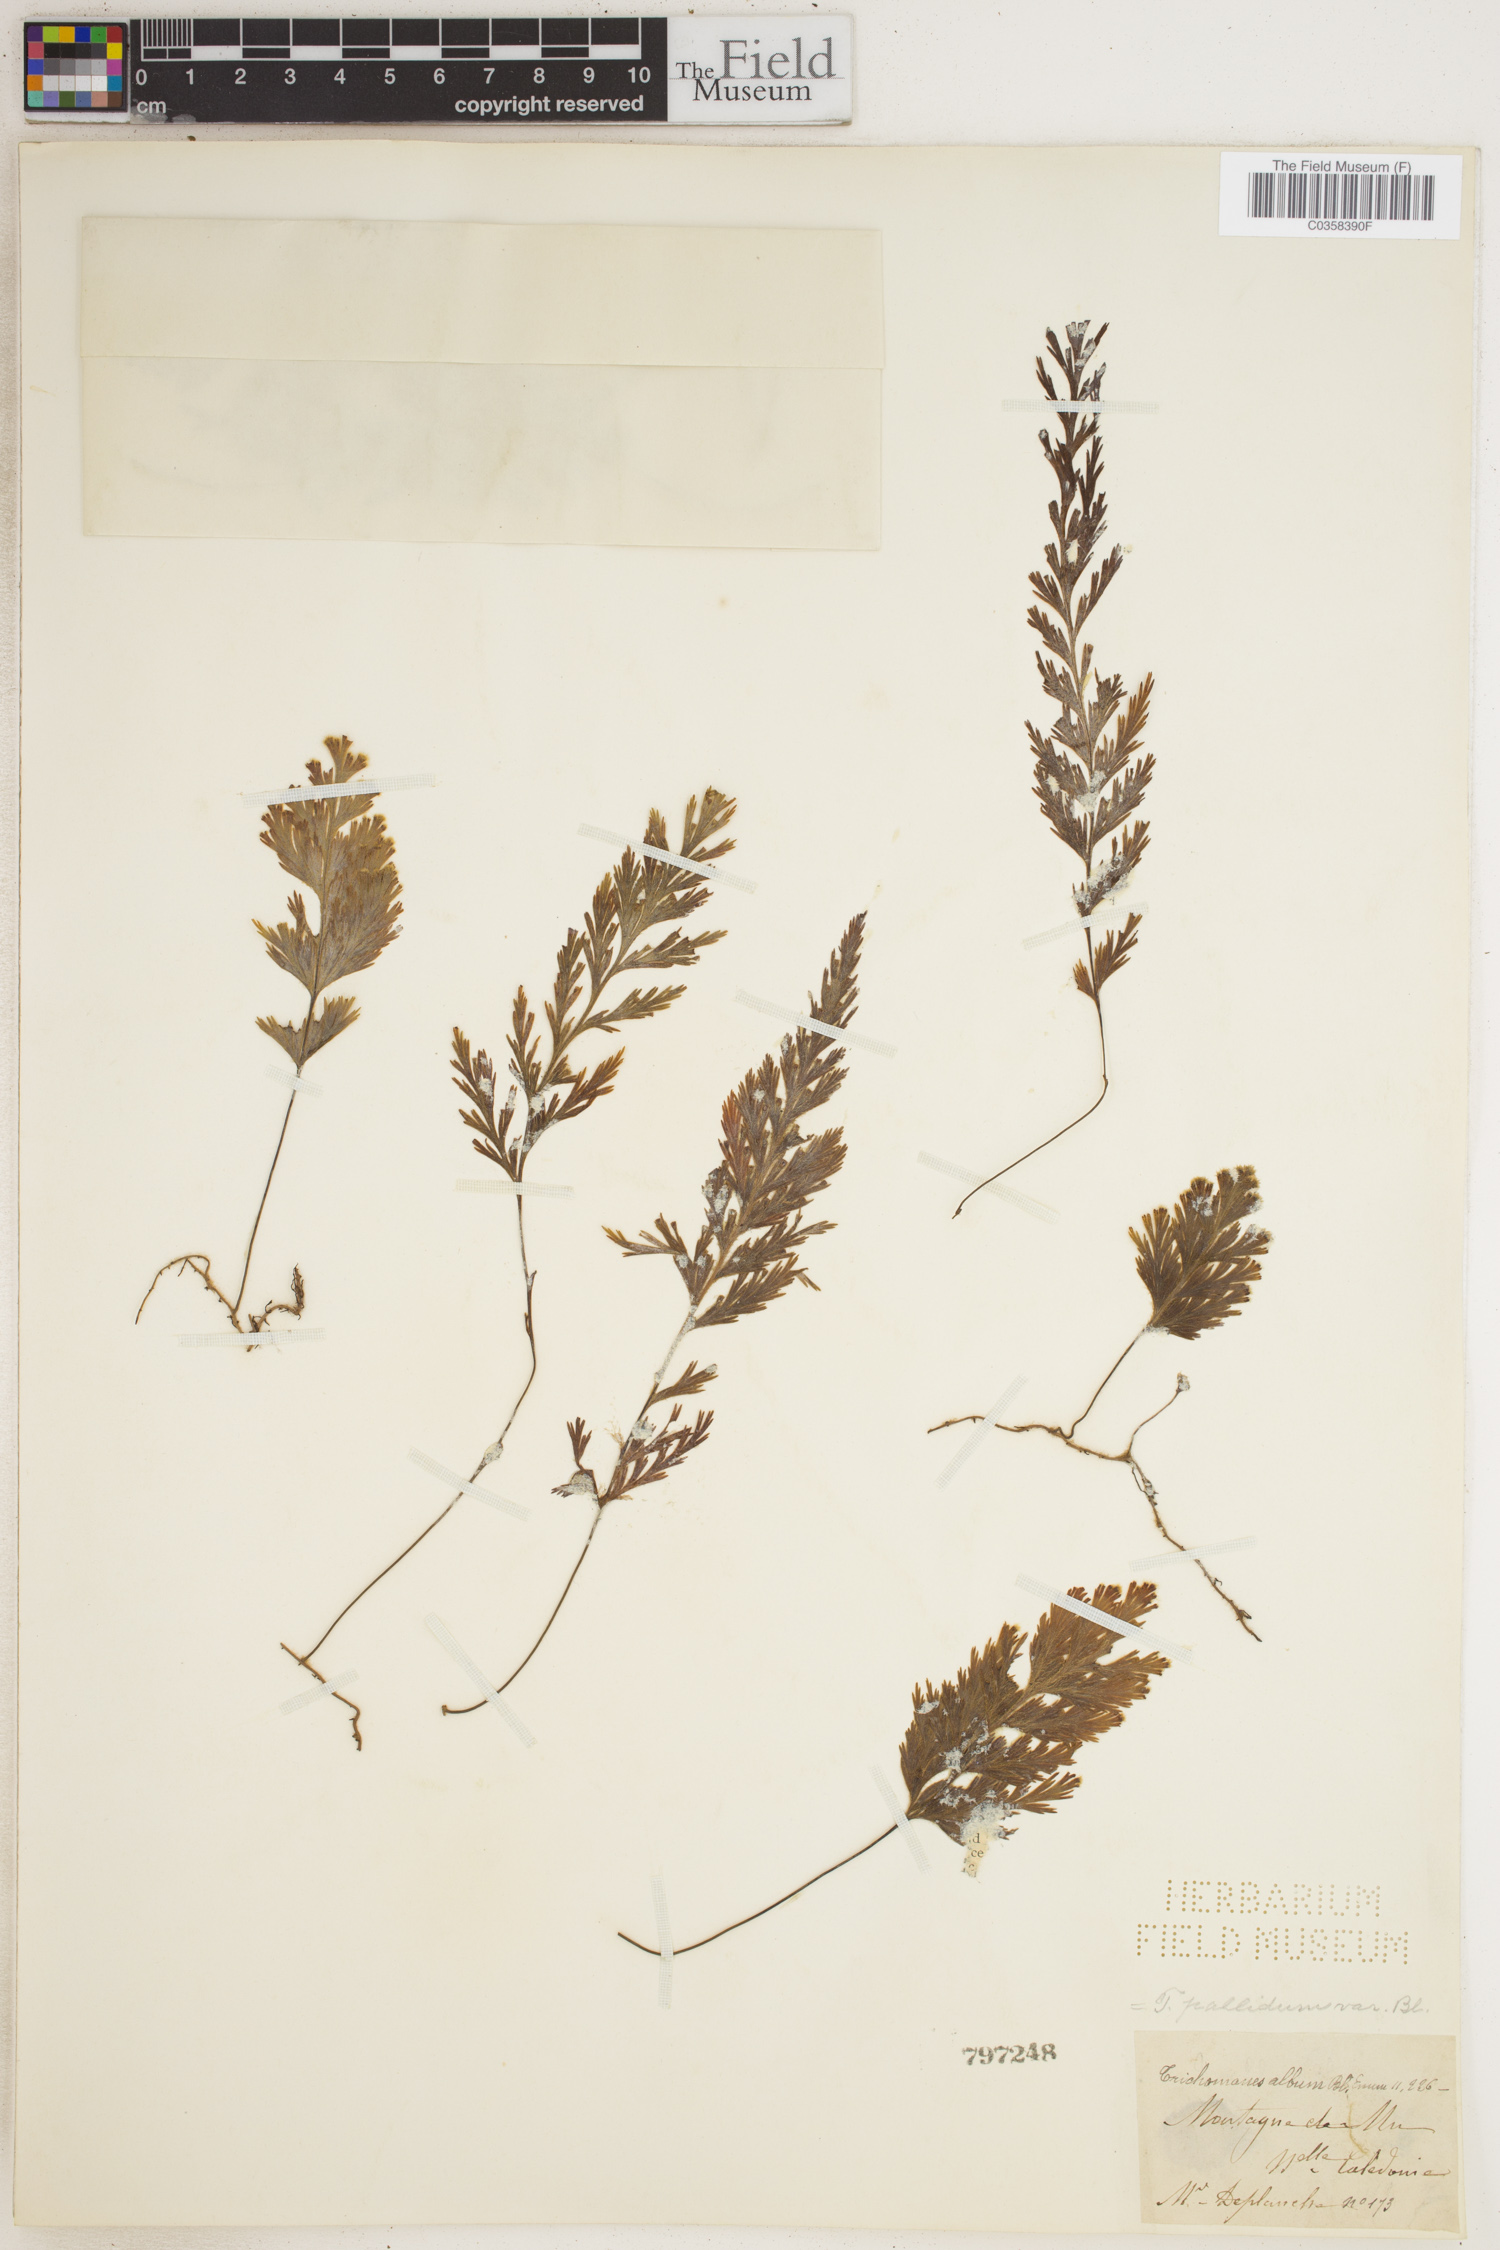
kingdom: Plantae
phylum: Tracheophyta
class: Polypodiopsida
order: Hymenophyllales
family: Hymenophyllaceae
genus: Hymenophyllum
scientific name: Hymenophyllum pallidum
